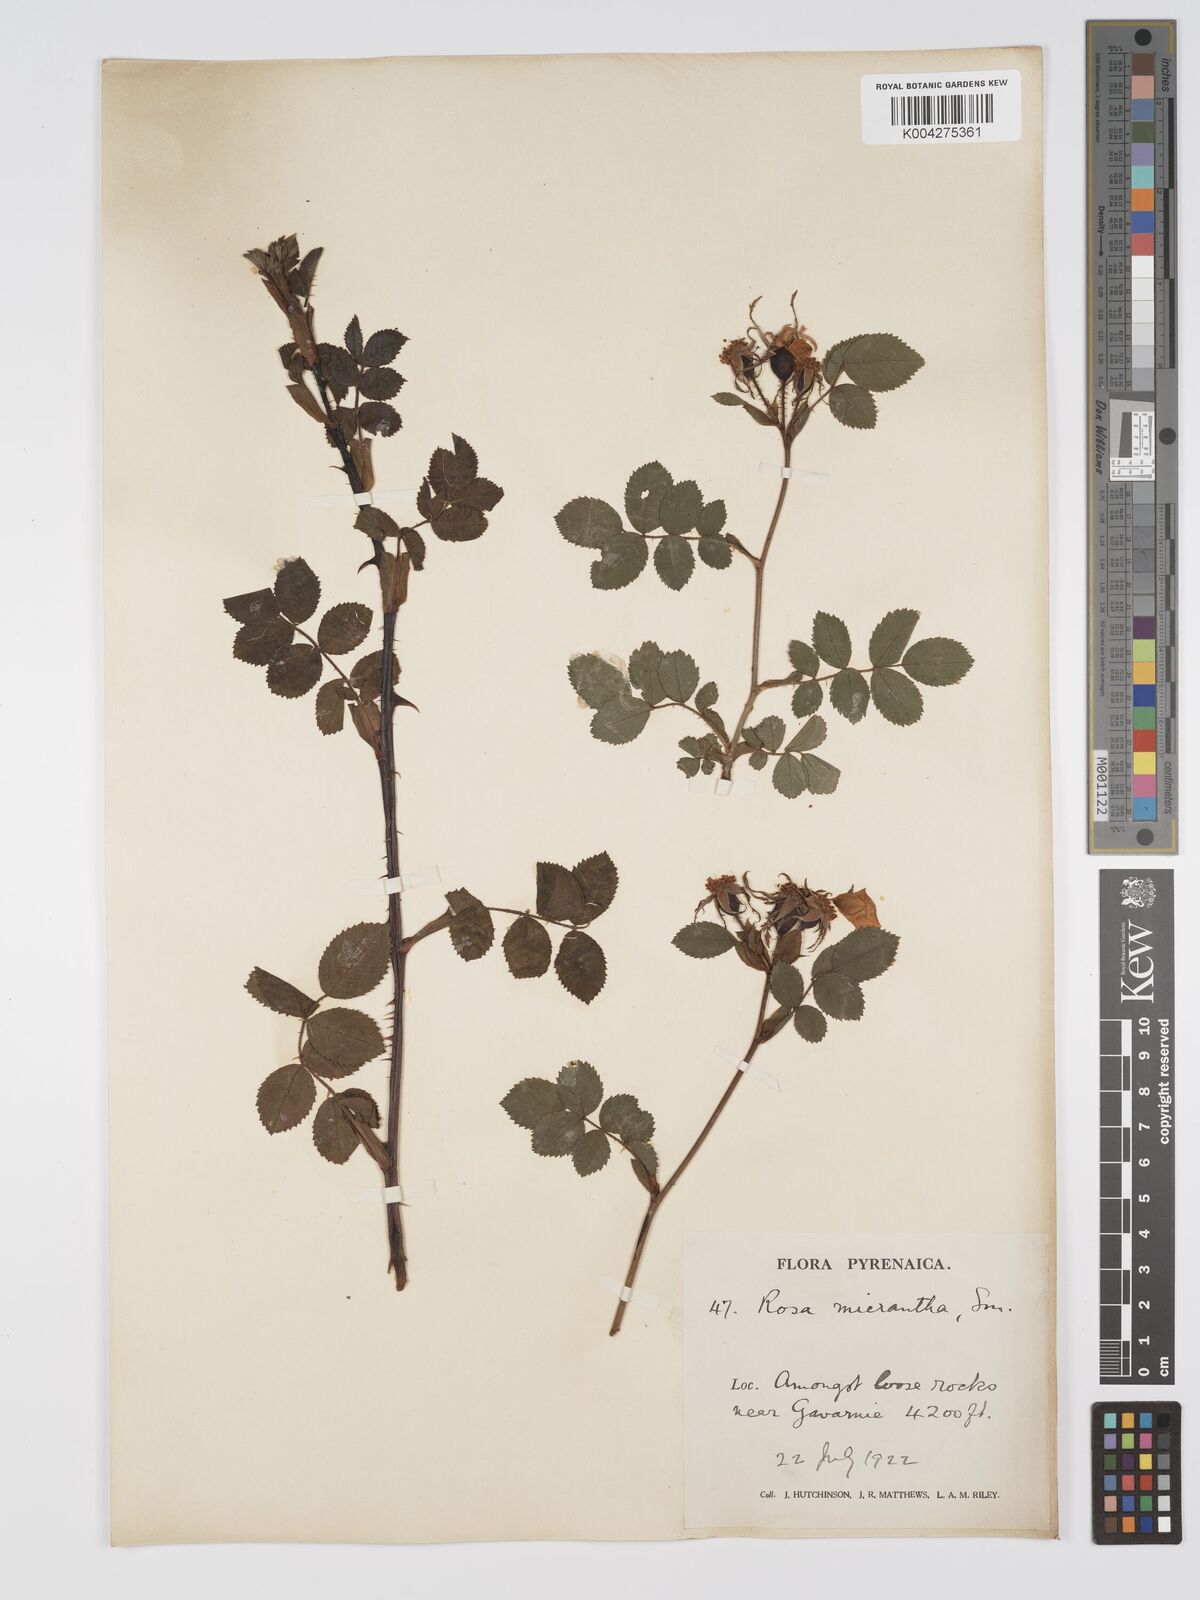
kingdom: Plantae
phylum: Tracheophyta
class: Magnoliopsida
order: Rosales
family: Rosaceae
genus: Rosa
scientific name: Rosa
